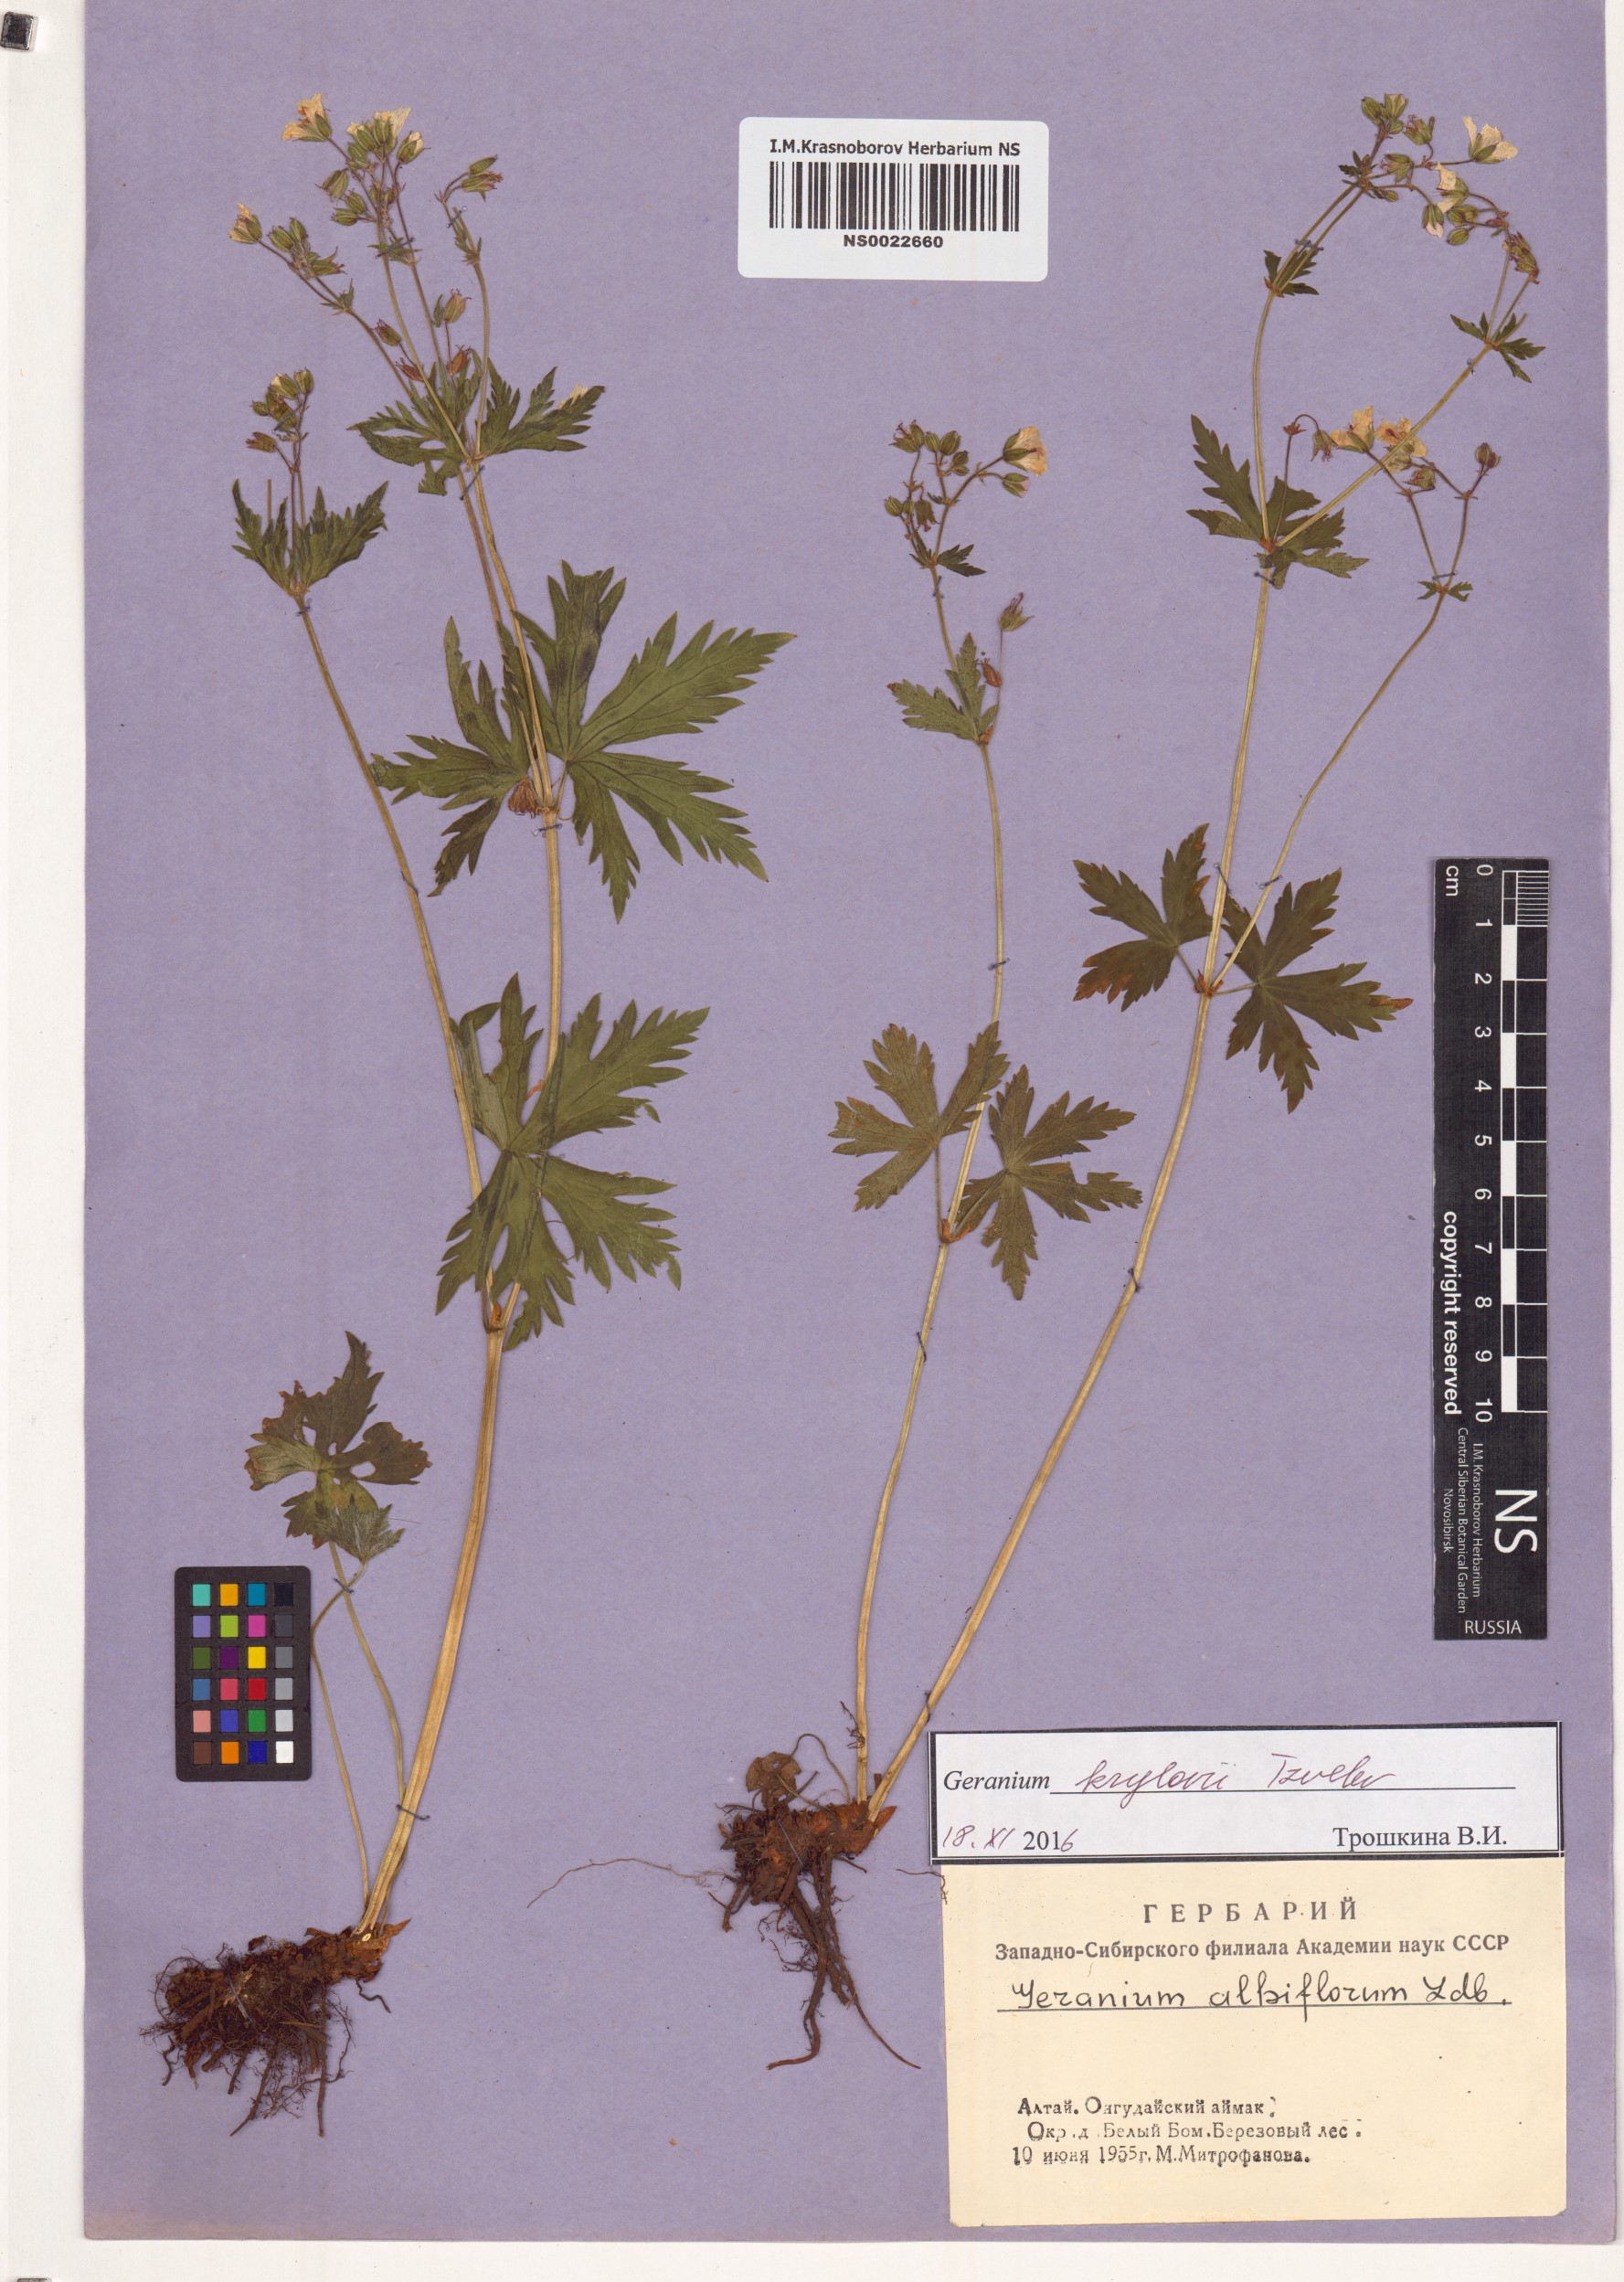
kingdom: Plantae
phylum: Tracheophyta
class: Magnoliopsida
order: Geraniales
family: Geraniaceae
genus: Geranium
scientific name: Geranium sylvaticum
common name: Wood crane's-bill
